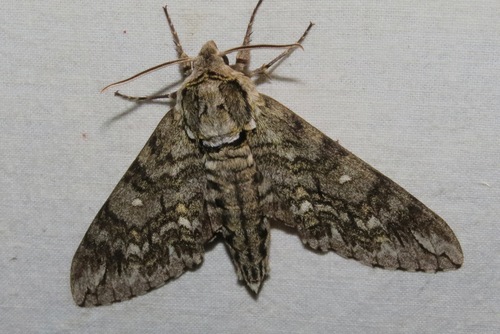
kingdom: Animalia
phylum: Arthropoda
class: Insecta
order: Lepidoptera
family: Sphingidae
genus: Ceratomia
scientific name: Ceratomia undulosa
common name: Waved sphinx
